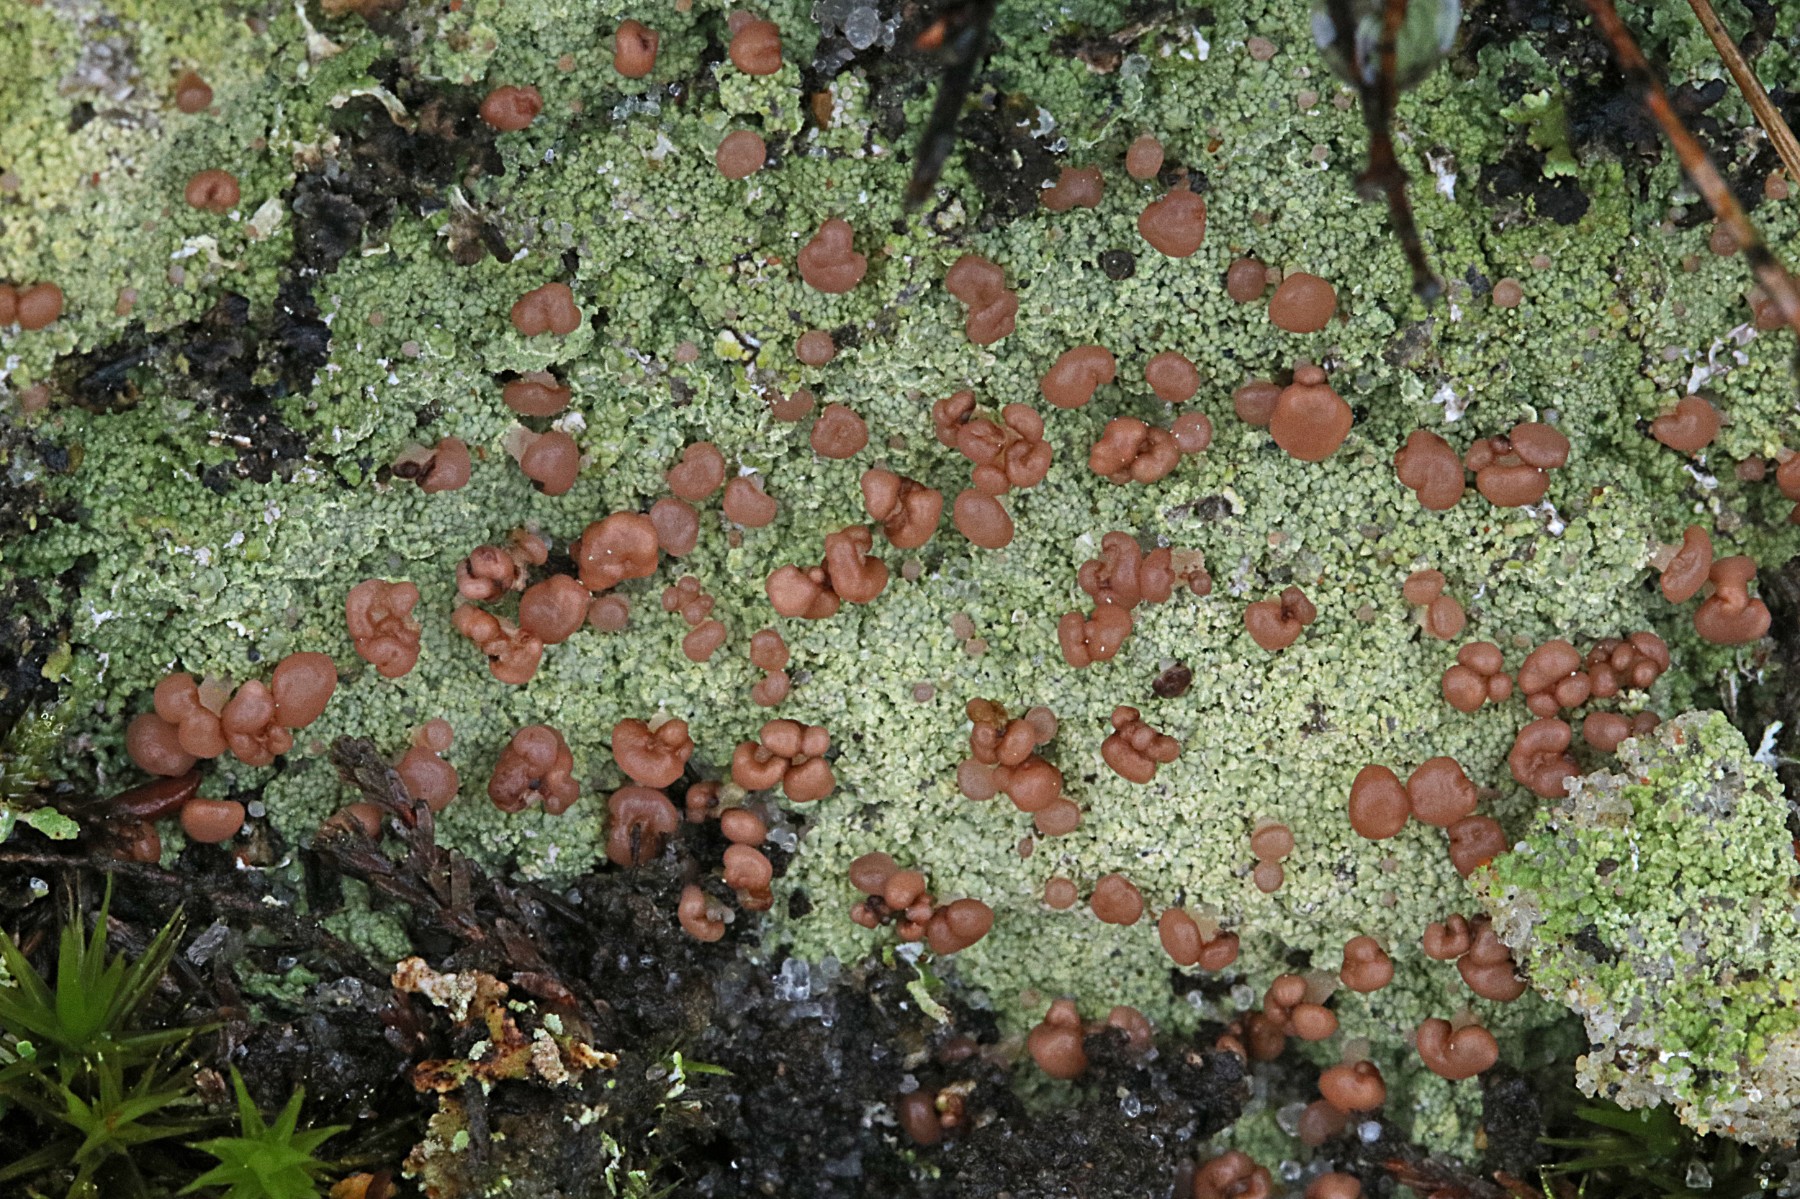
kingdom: Fungi
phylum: Ascomycota
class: Lecanoromycetes
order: Baeomycetales
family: Baeomycetaceae
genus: Baeomyces
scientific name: Baeomyces rufus
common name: rødbrun svampelav
